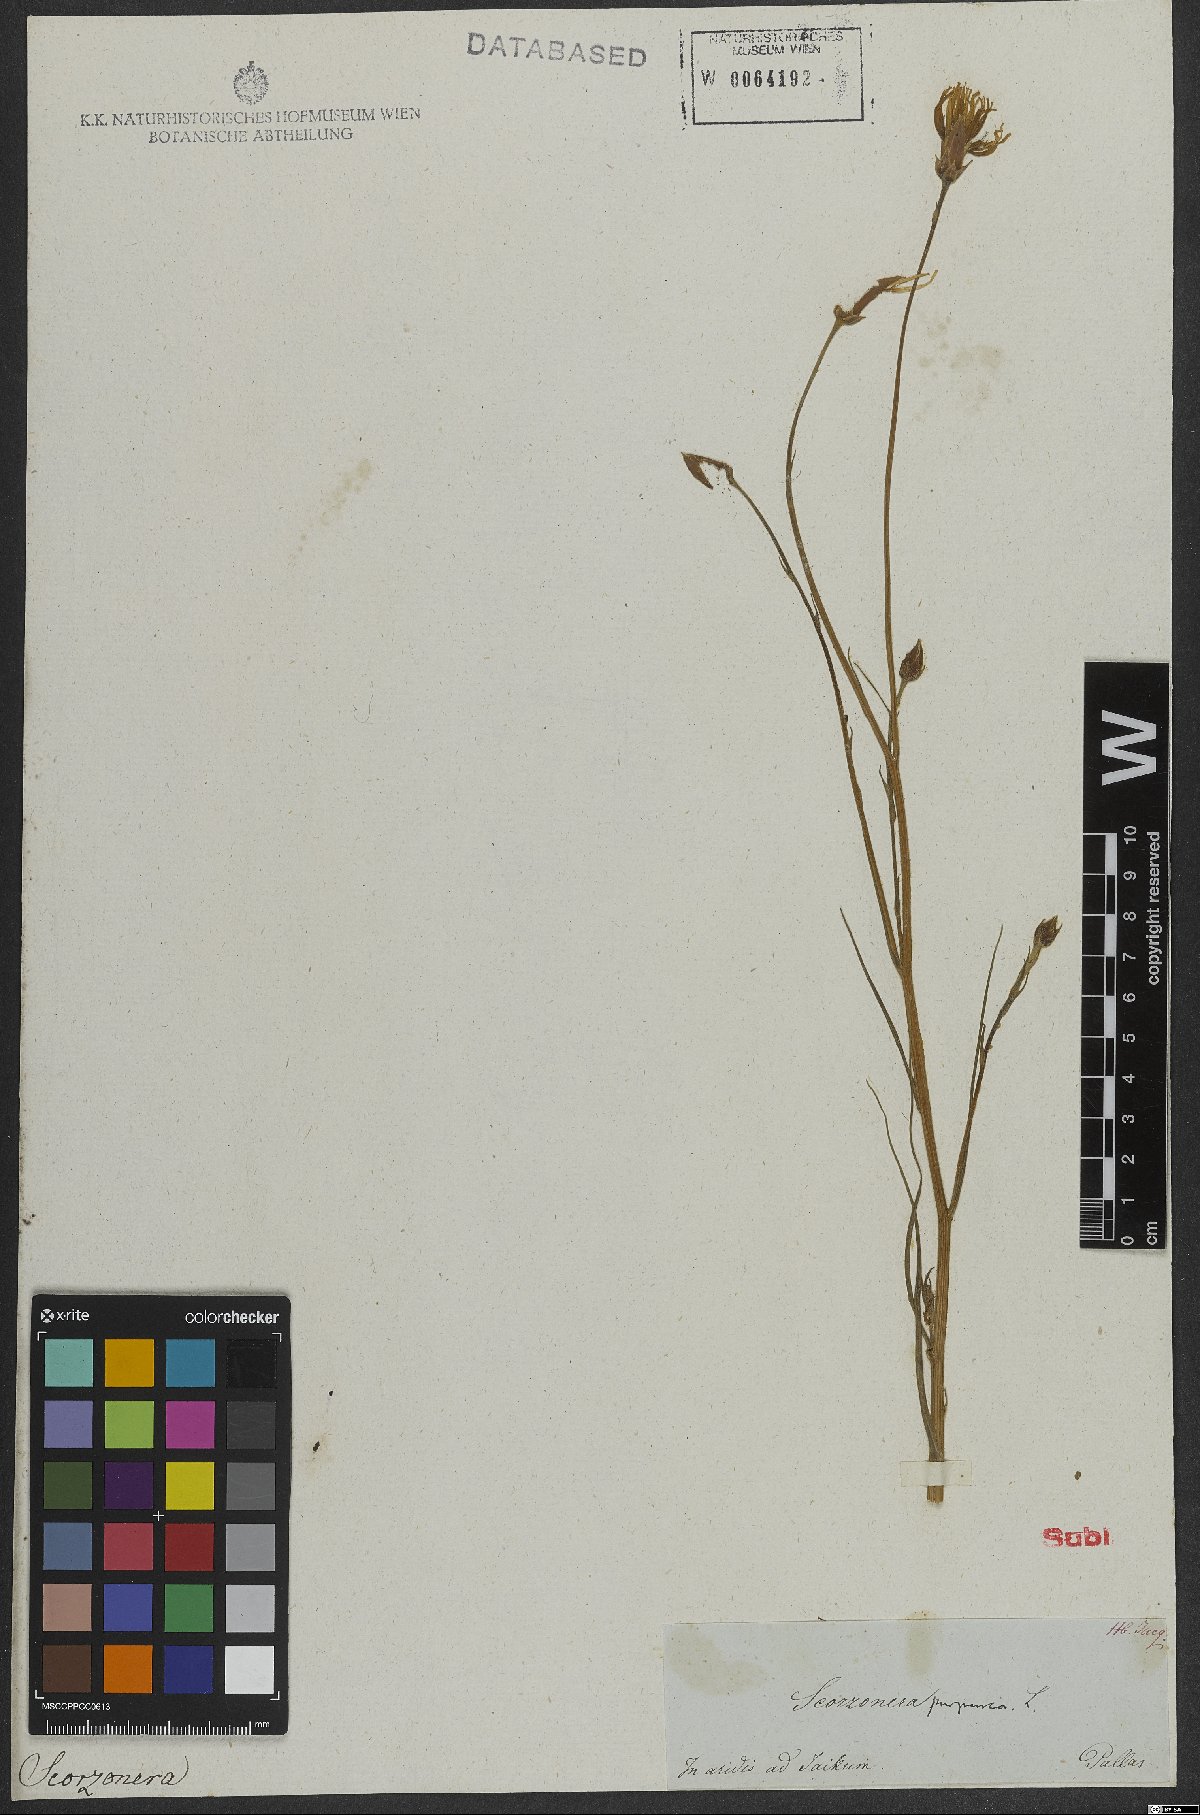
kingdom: Plantae
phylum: Tracheophyta
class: Magnoliopsida
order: Asterales
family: Asteraceae
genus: Scorzonera
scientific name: Scorzonera purpurea
